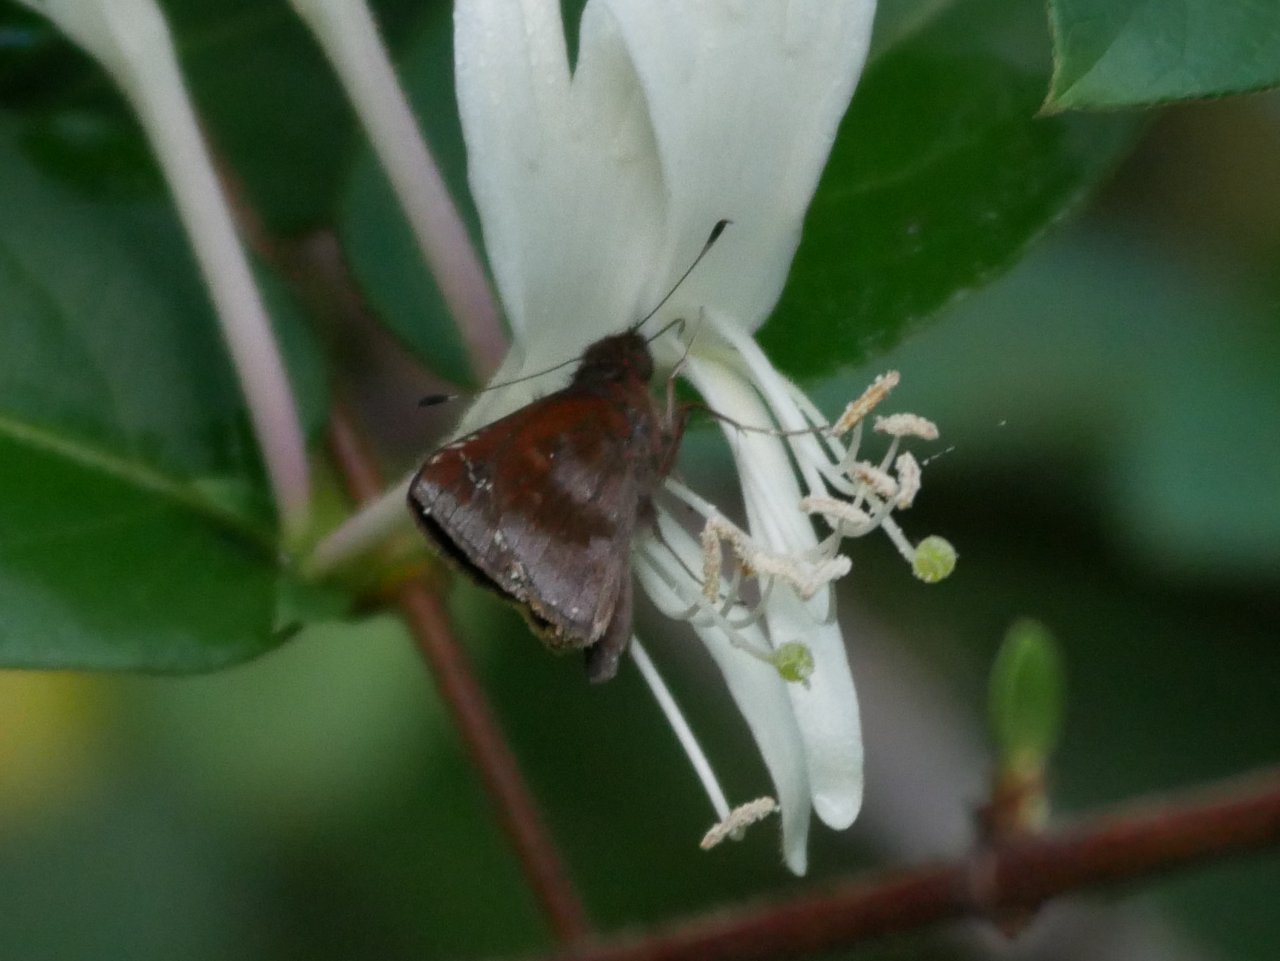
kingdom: Animalia
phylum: Arthropoda
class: Insecta
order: Lepidoptera
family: Hesperiidae
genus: Lerema
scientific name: Lerema accius
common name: Clouded Skipper
